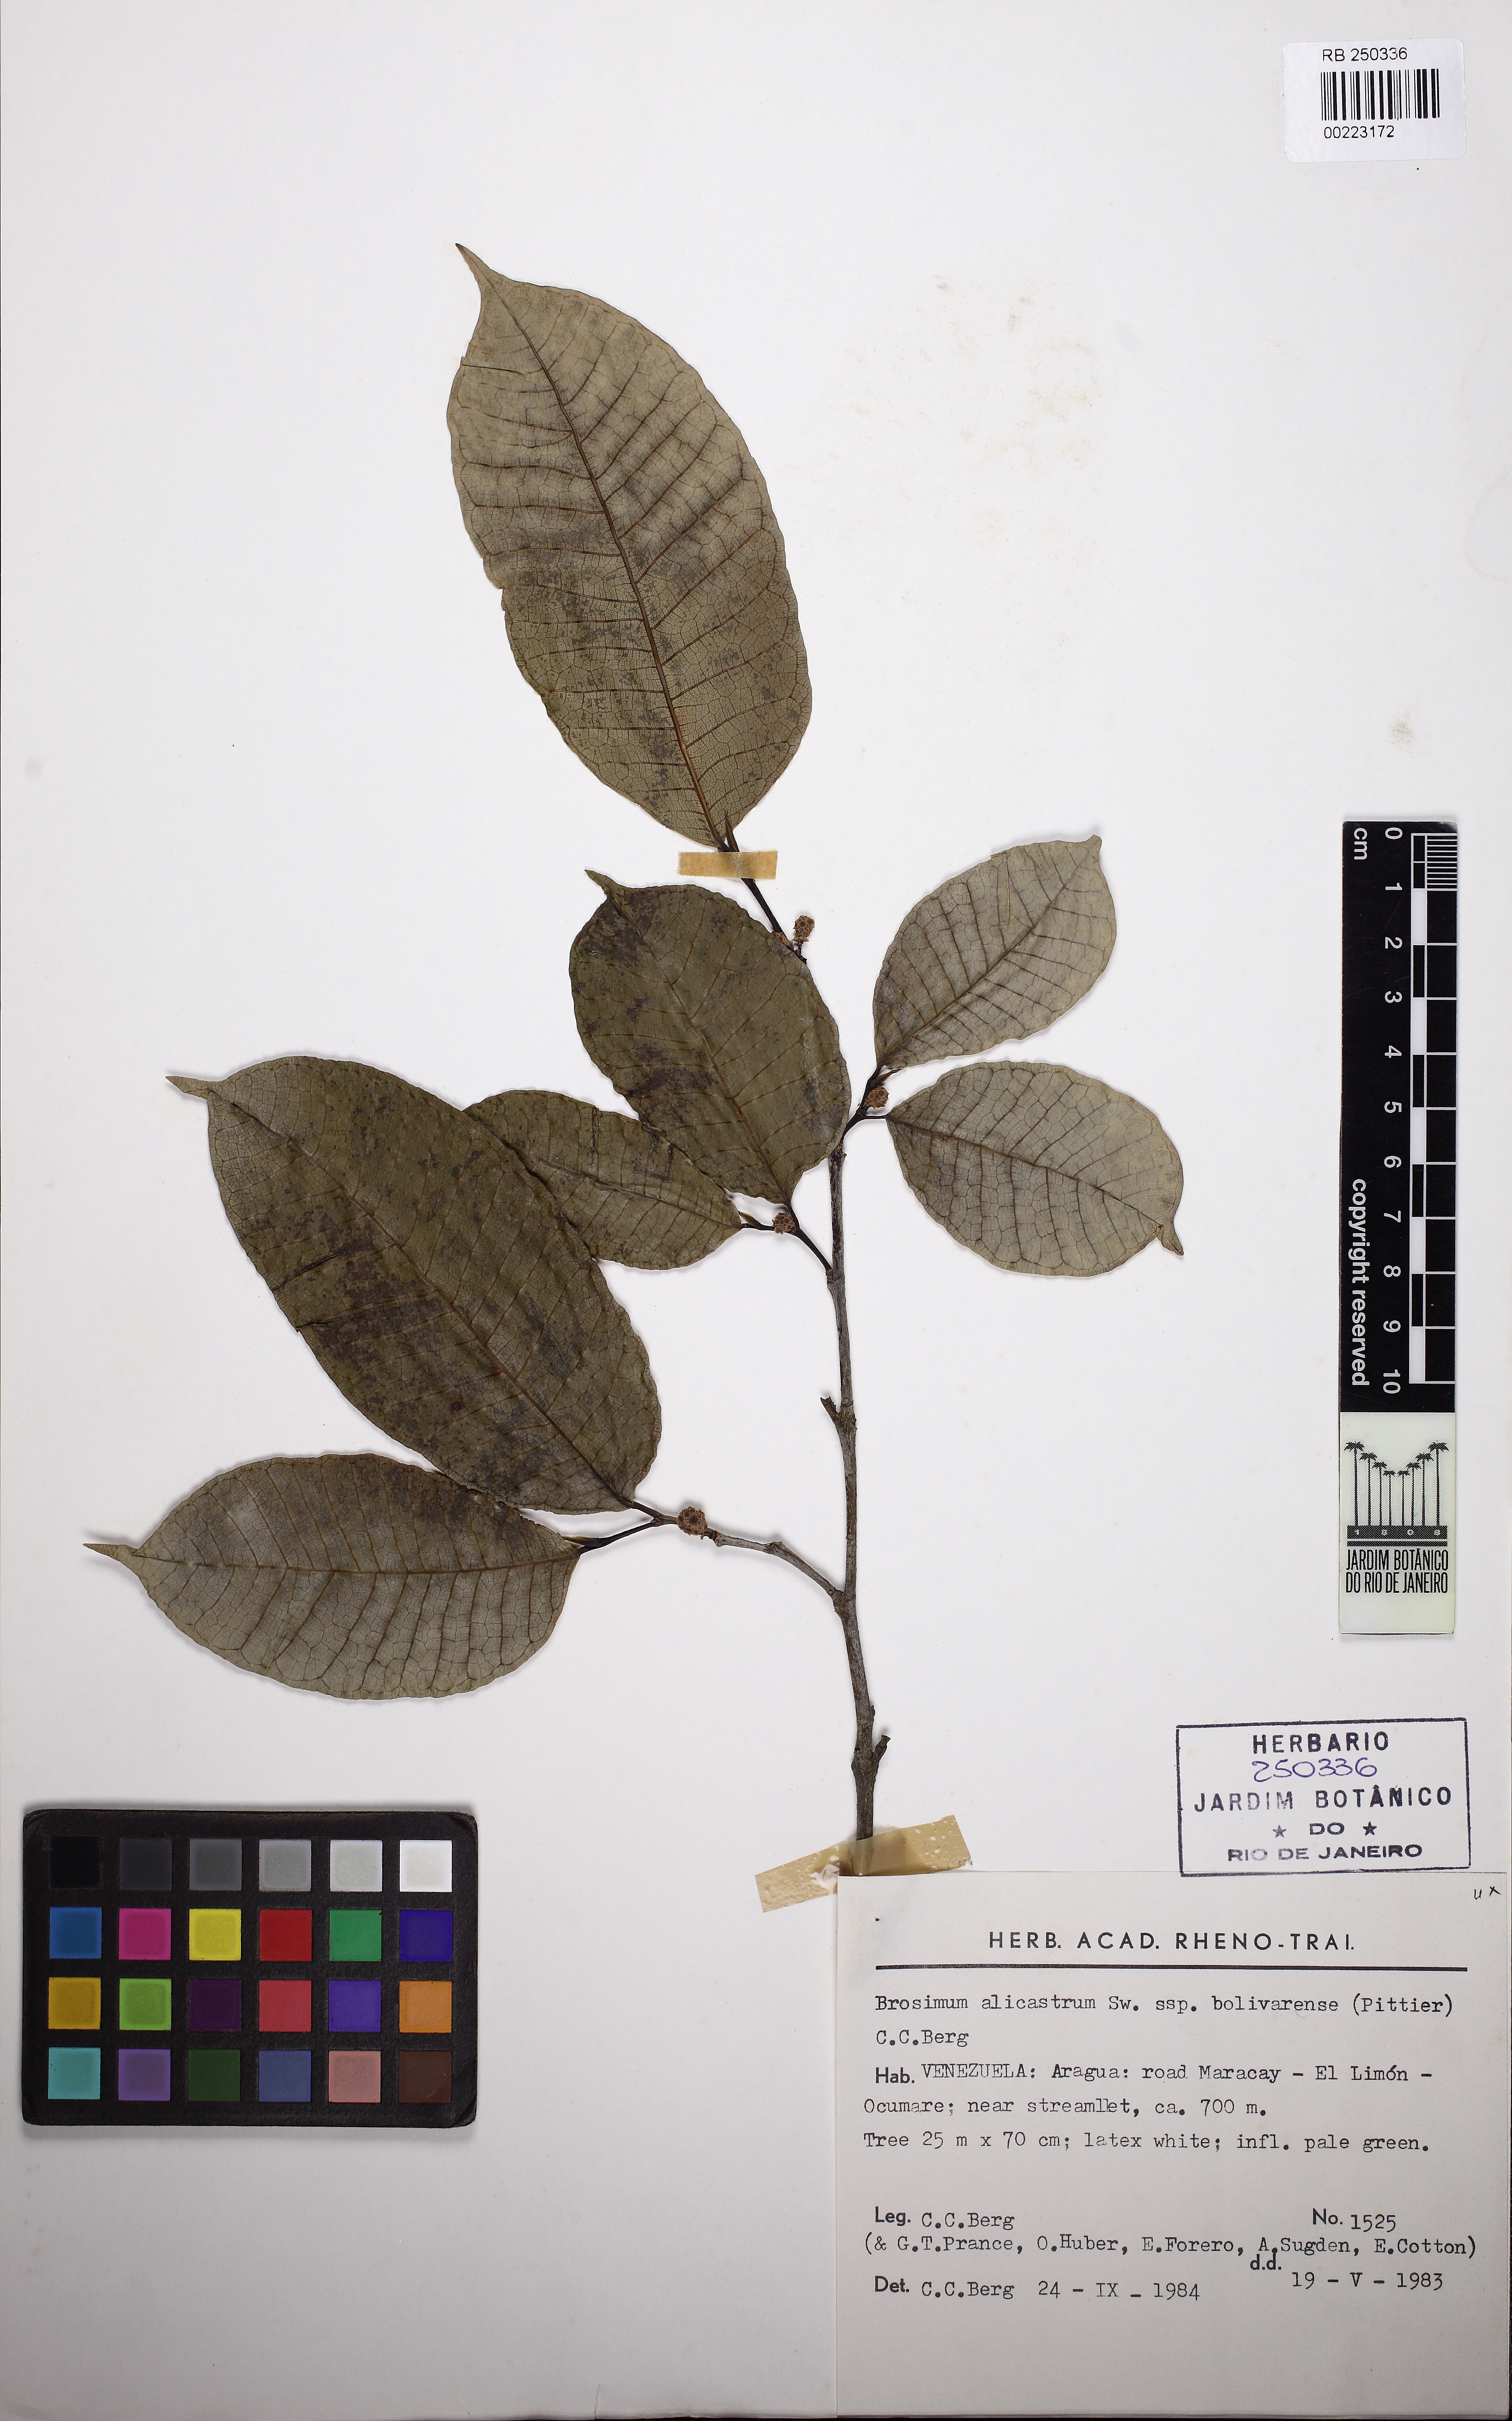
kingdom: Plantae
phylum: Tracheophyta
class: Magnoliopsida
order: Rosales
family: Moraceae
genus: Brosimum
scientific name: Brosimum alicastrum
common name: Breadnut
